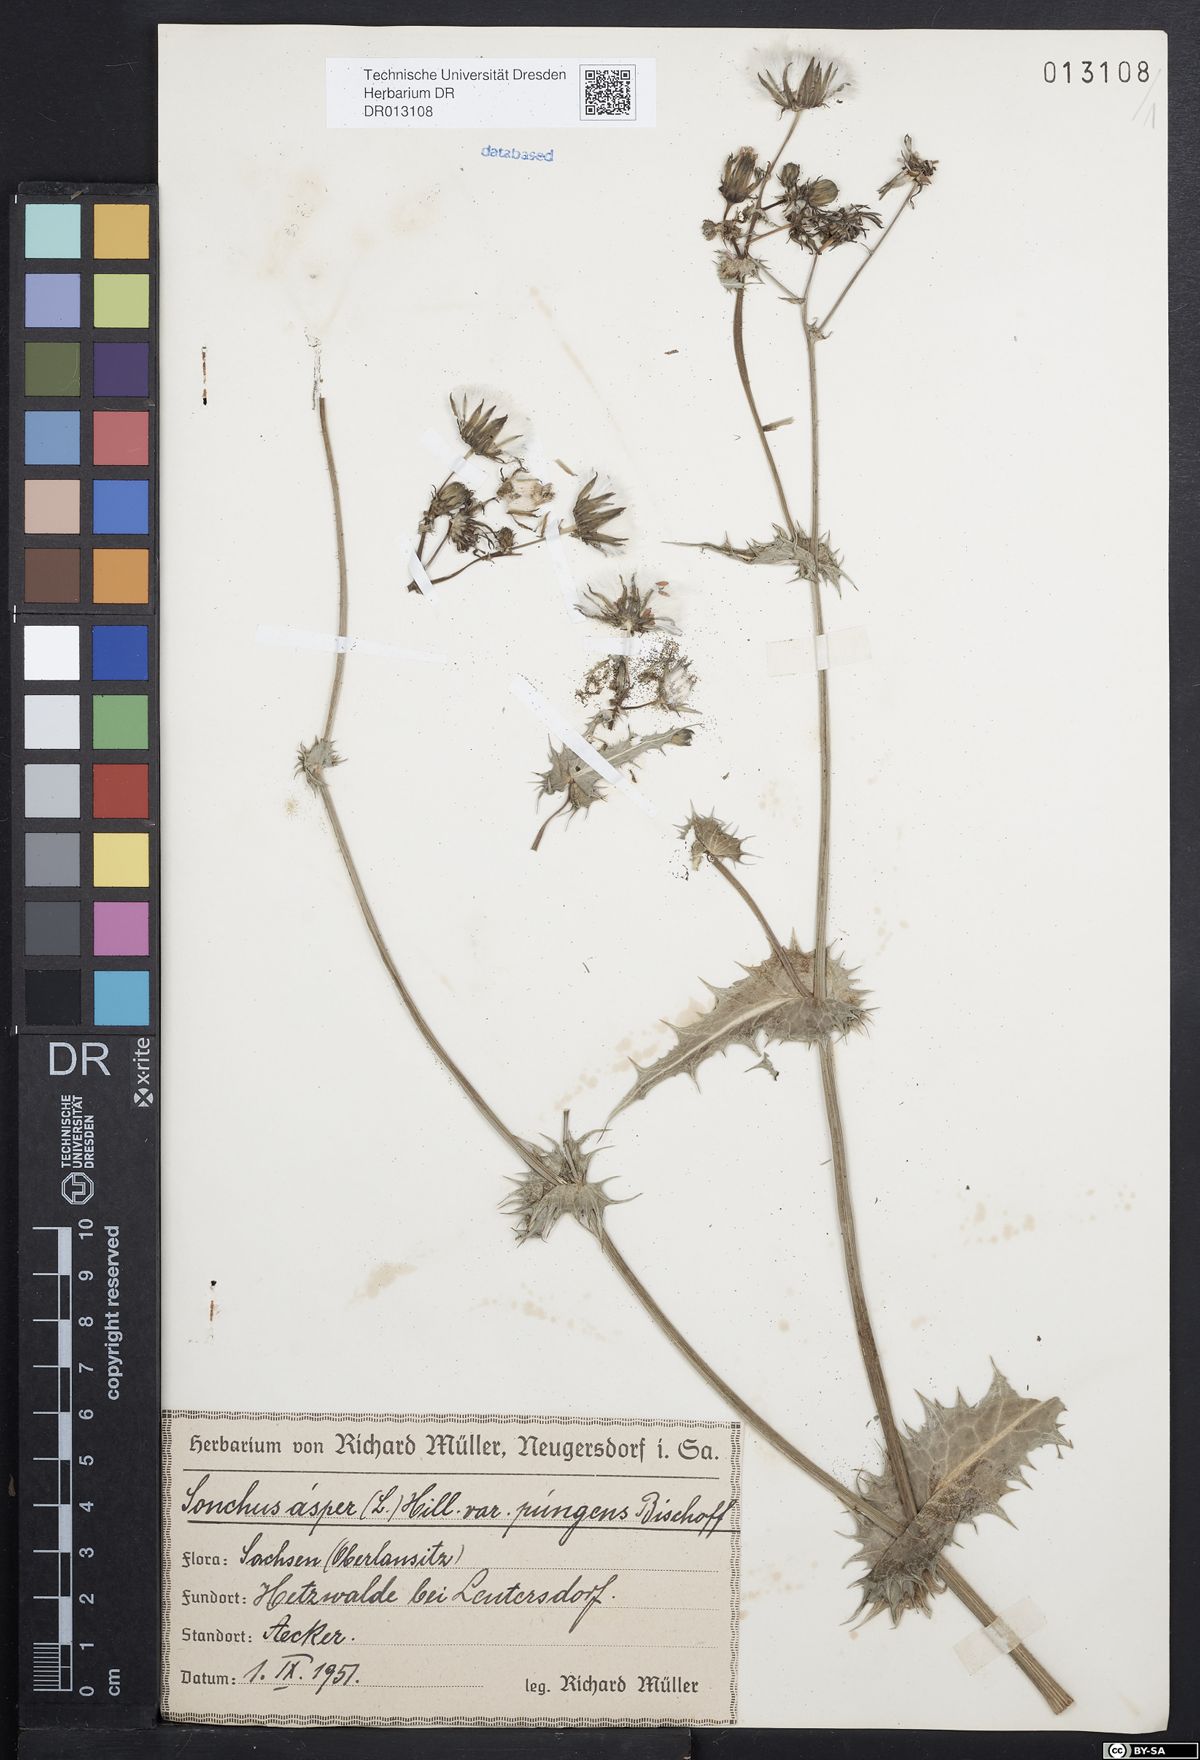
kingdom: Plantae
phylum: Tracheophyta
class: Magnoliopsida
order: Asterales
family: Asteraceae
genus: Sonchus
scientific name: Sonchus asper
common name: Prickly sow-thistle
